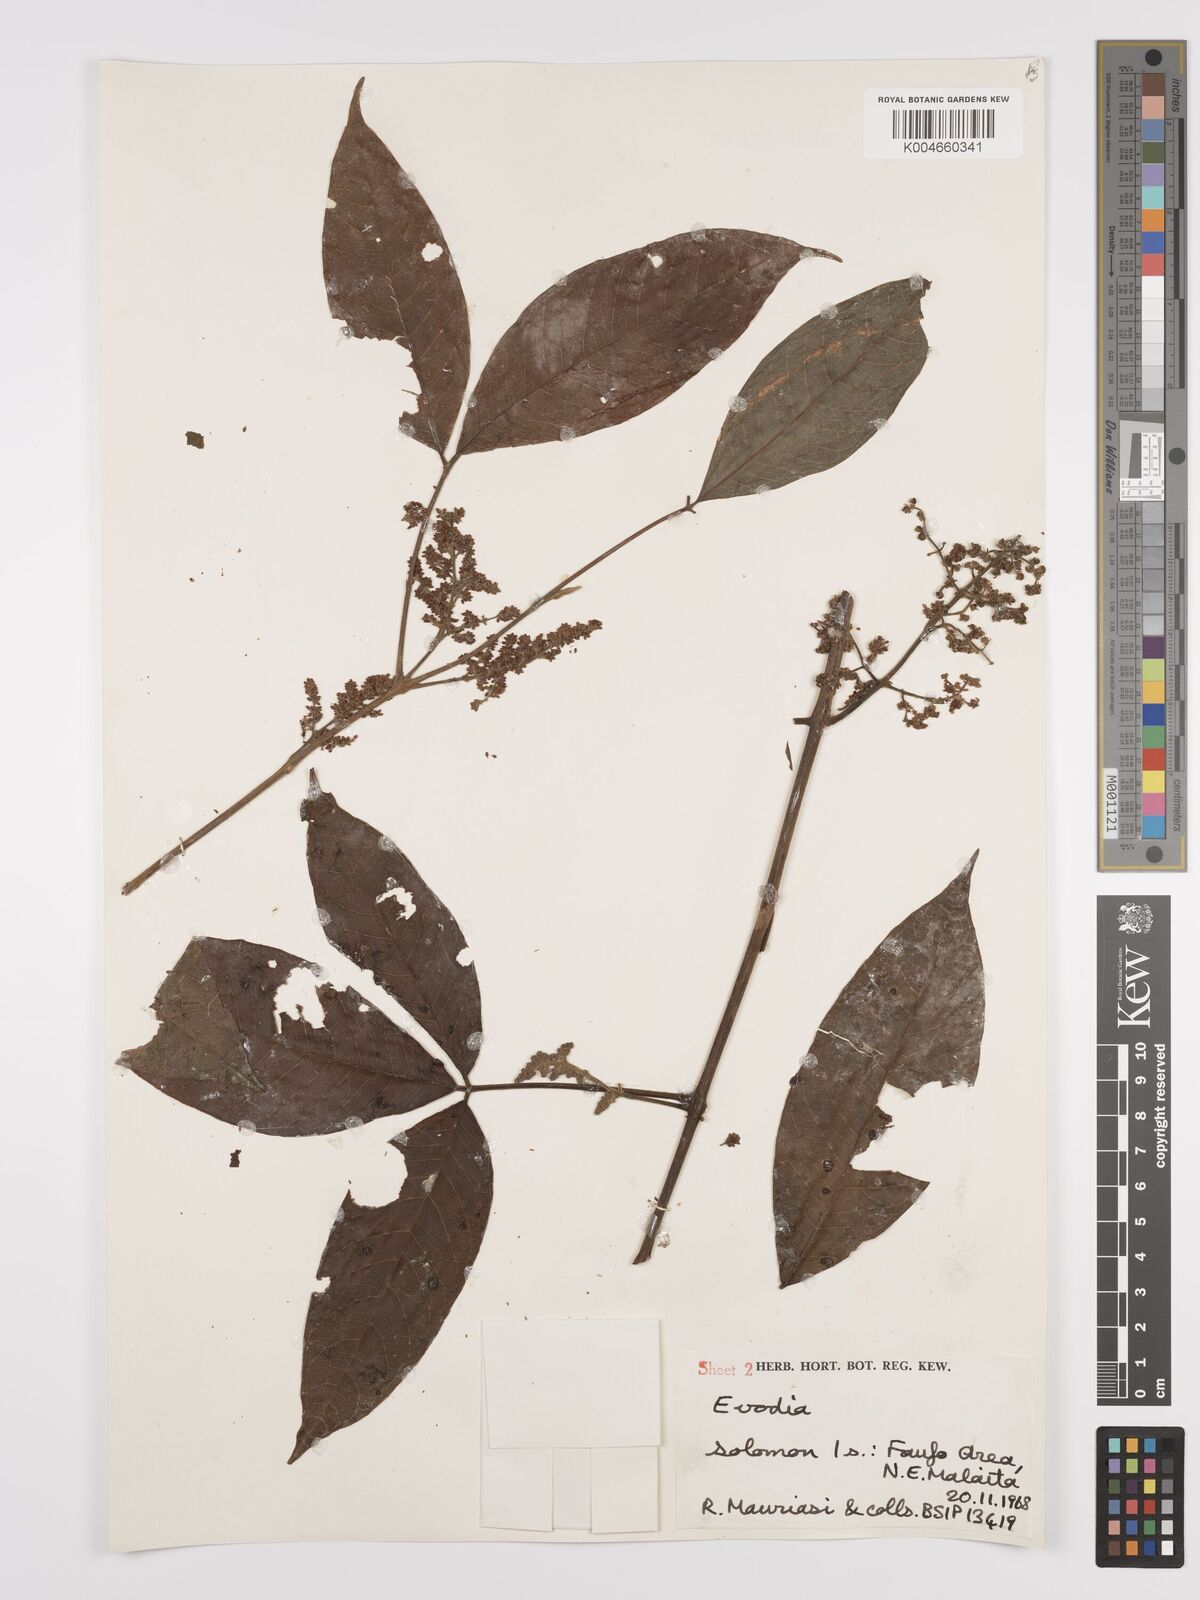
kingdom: Plantae
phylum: Tracheophyta
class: Magnoliopsida
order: Sapindales
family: Rutaceae
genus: Euodia
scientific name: Euodia
